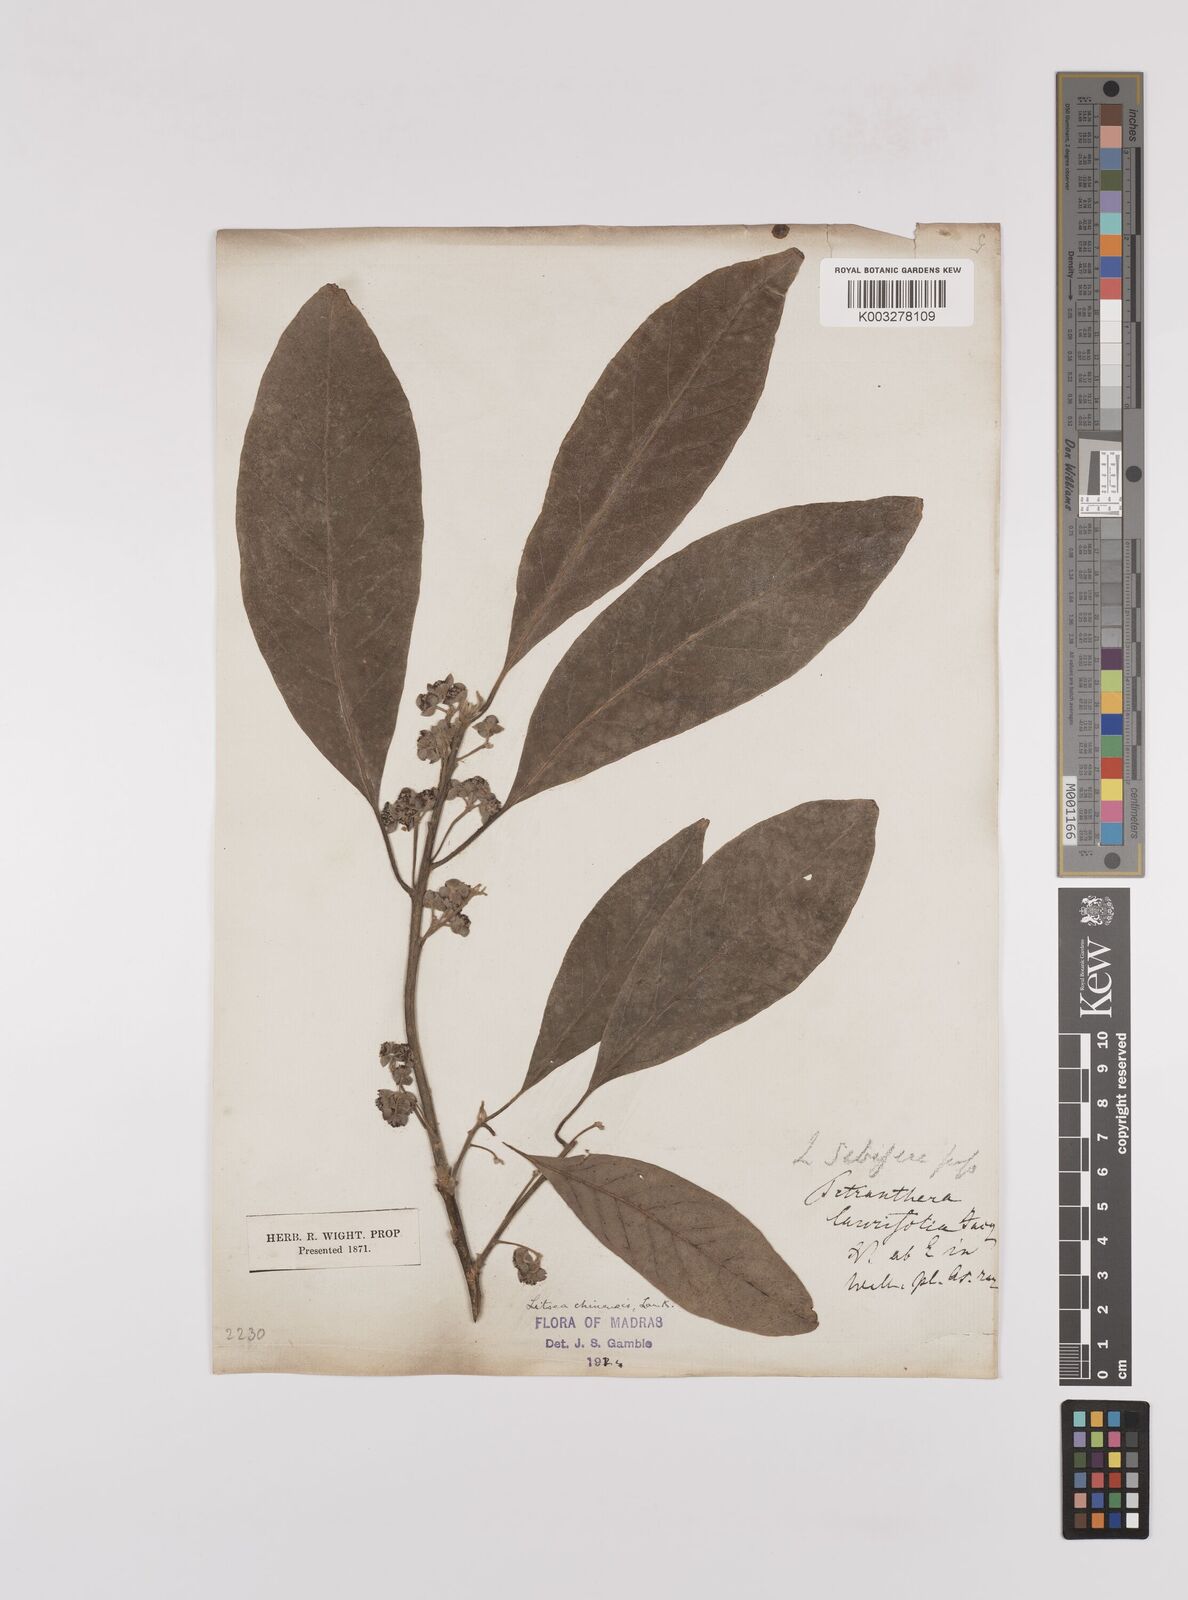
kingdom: Plantae
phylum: Tracheophyta
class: Magnoliopsida
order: Laurales
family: Lauraceae
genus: Litsea
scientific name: Litsea
